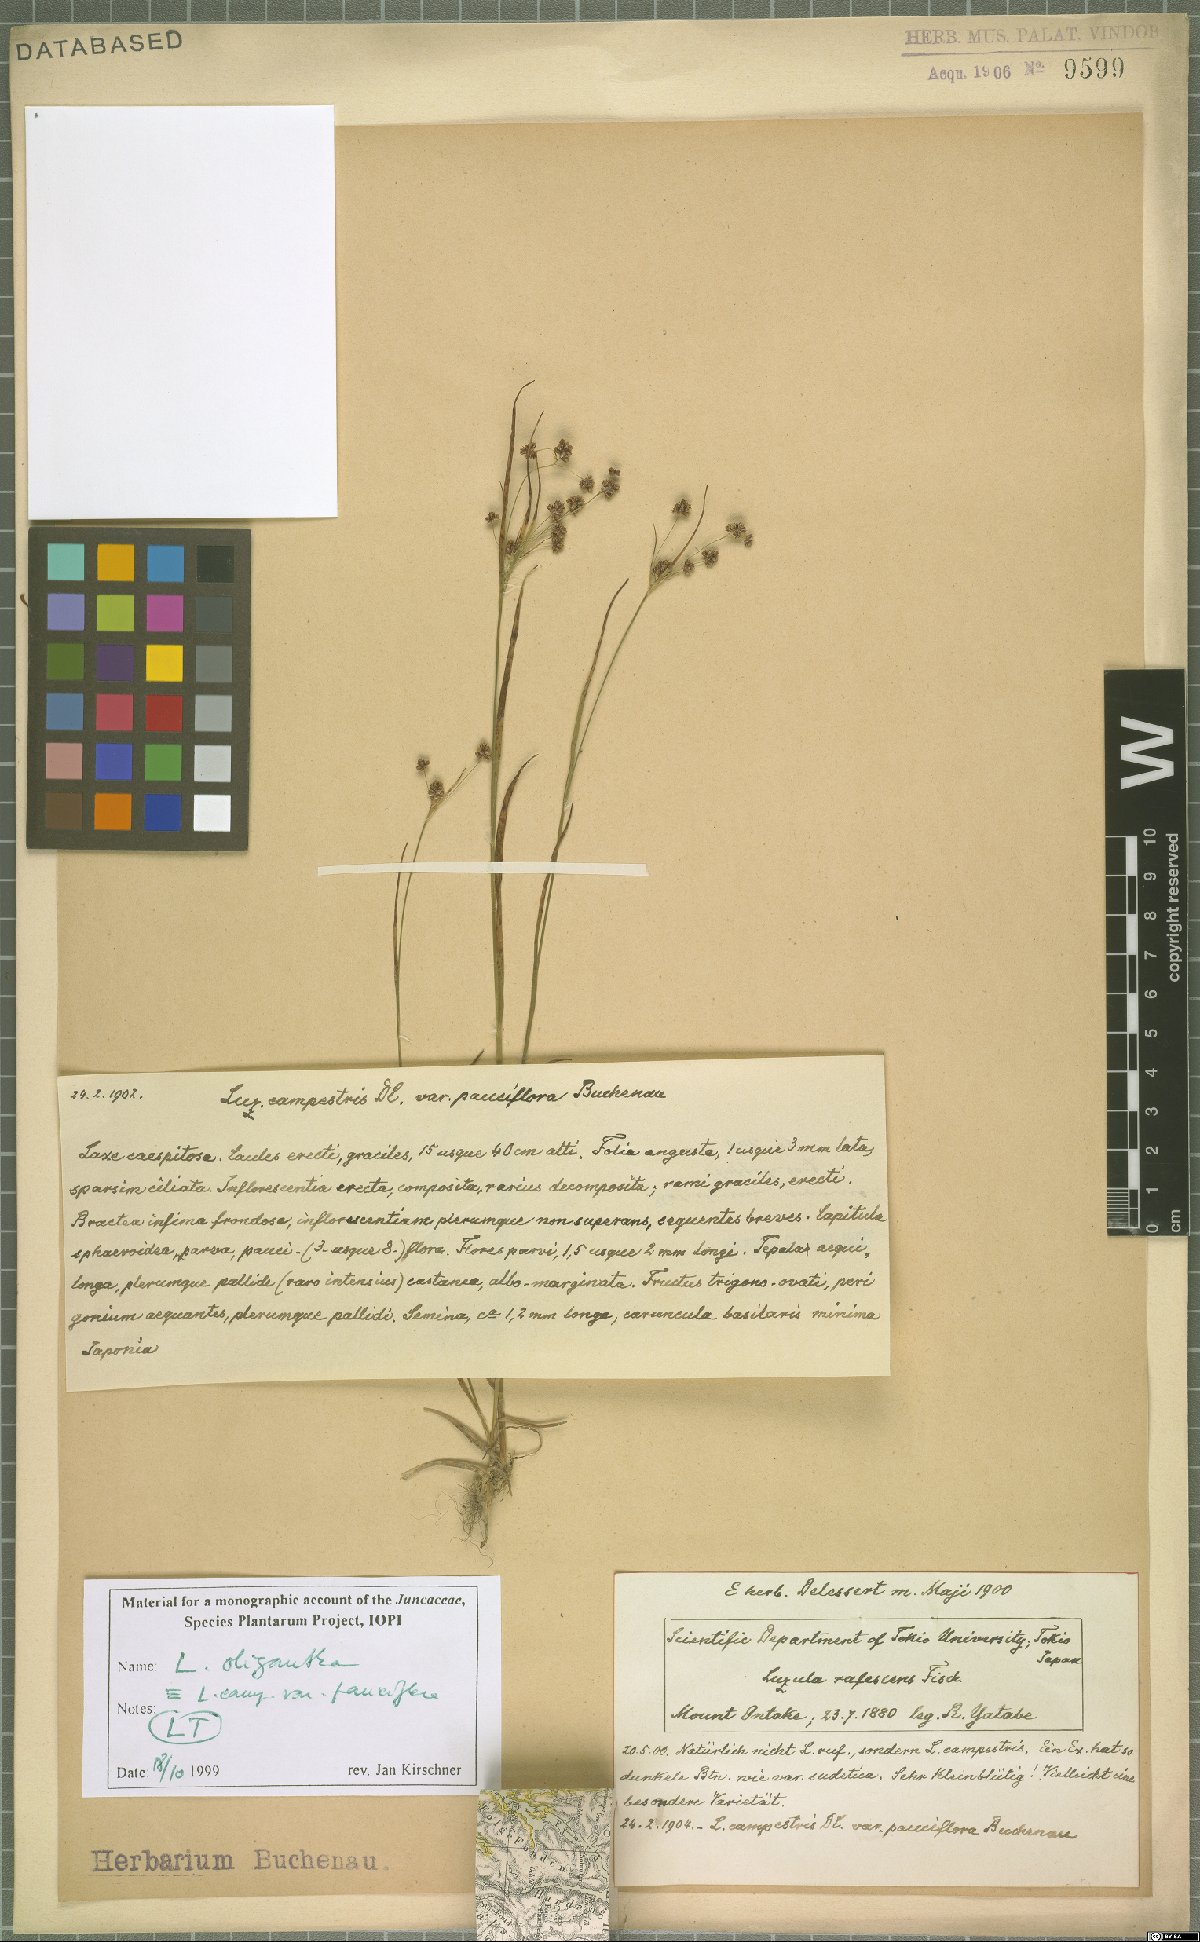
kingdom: Plantae
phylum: Tracheophyta
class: Liliopsida
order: Poales
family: Juncaceae
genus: Luzula
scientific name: Luzula oligantha
